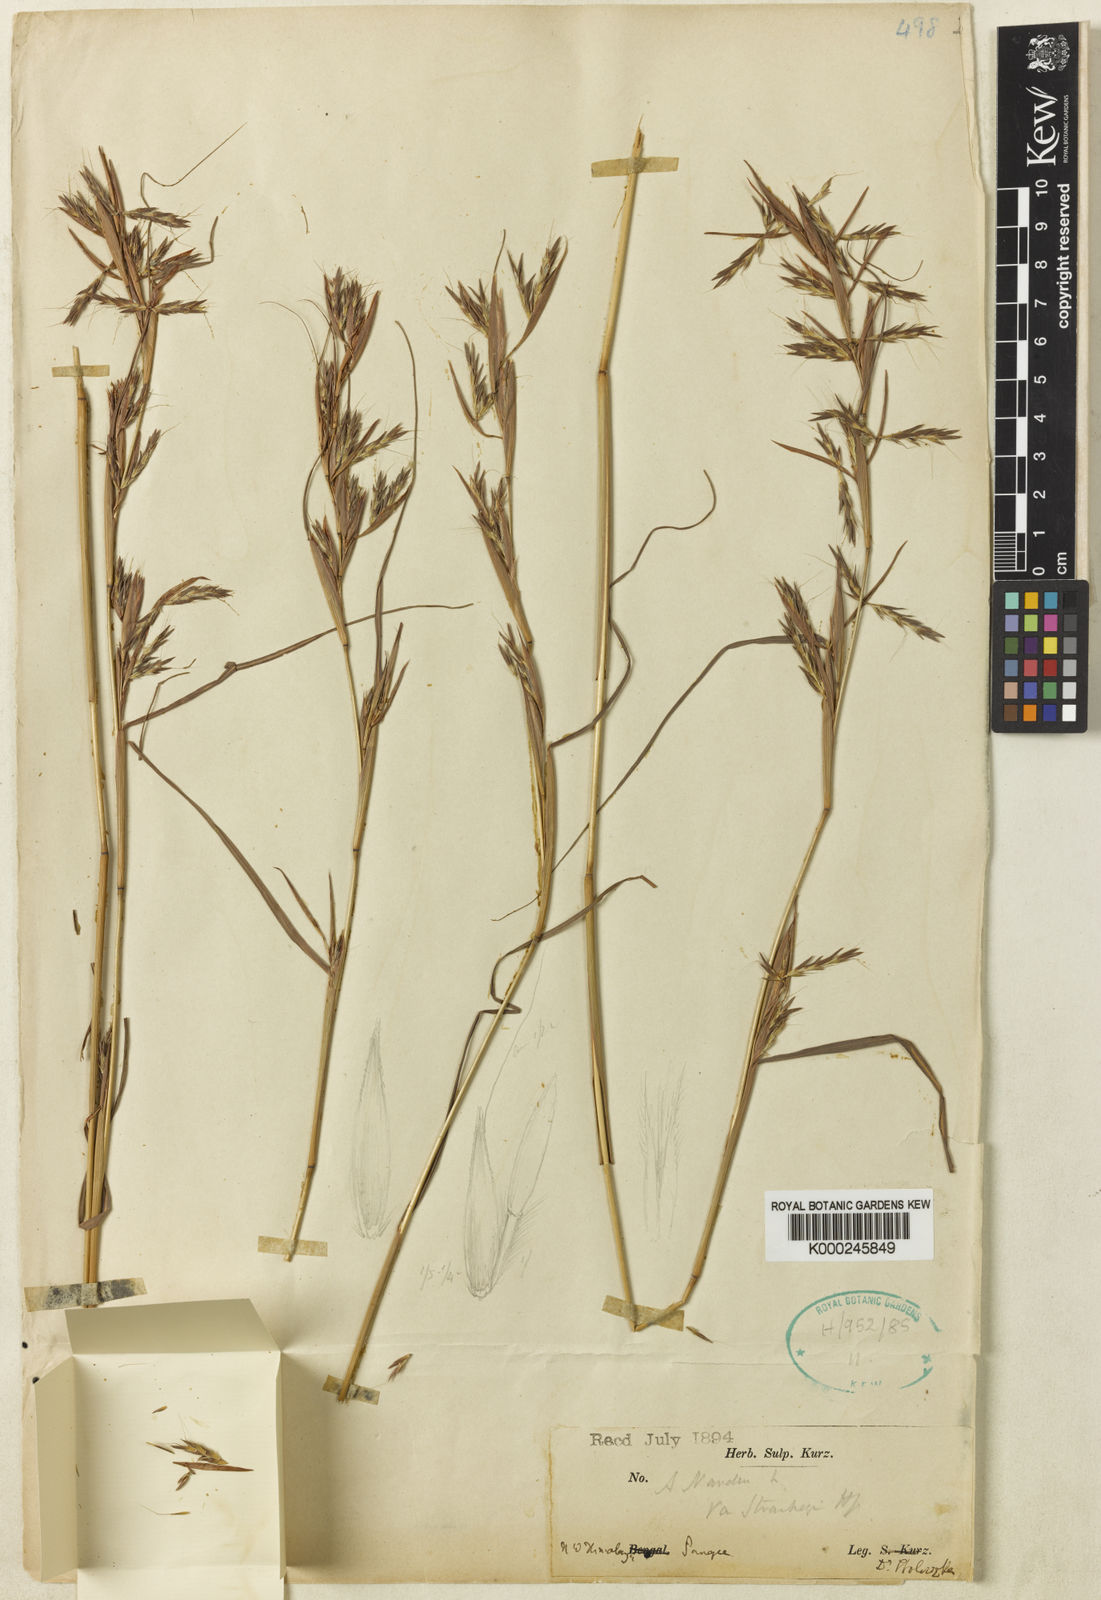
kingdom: Plantae
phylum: Tracheophyta
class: Liliopsida
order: Poales
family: Poaceae
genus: Cymbopogon
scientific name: Cymbopogon pospischilii
